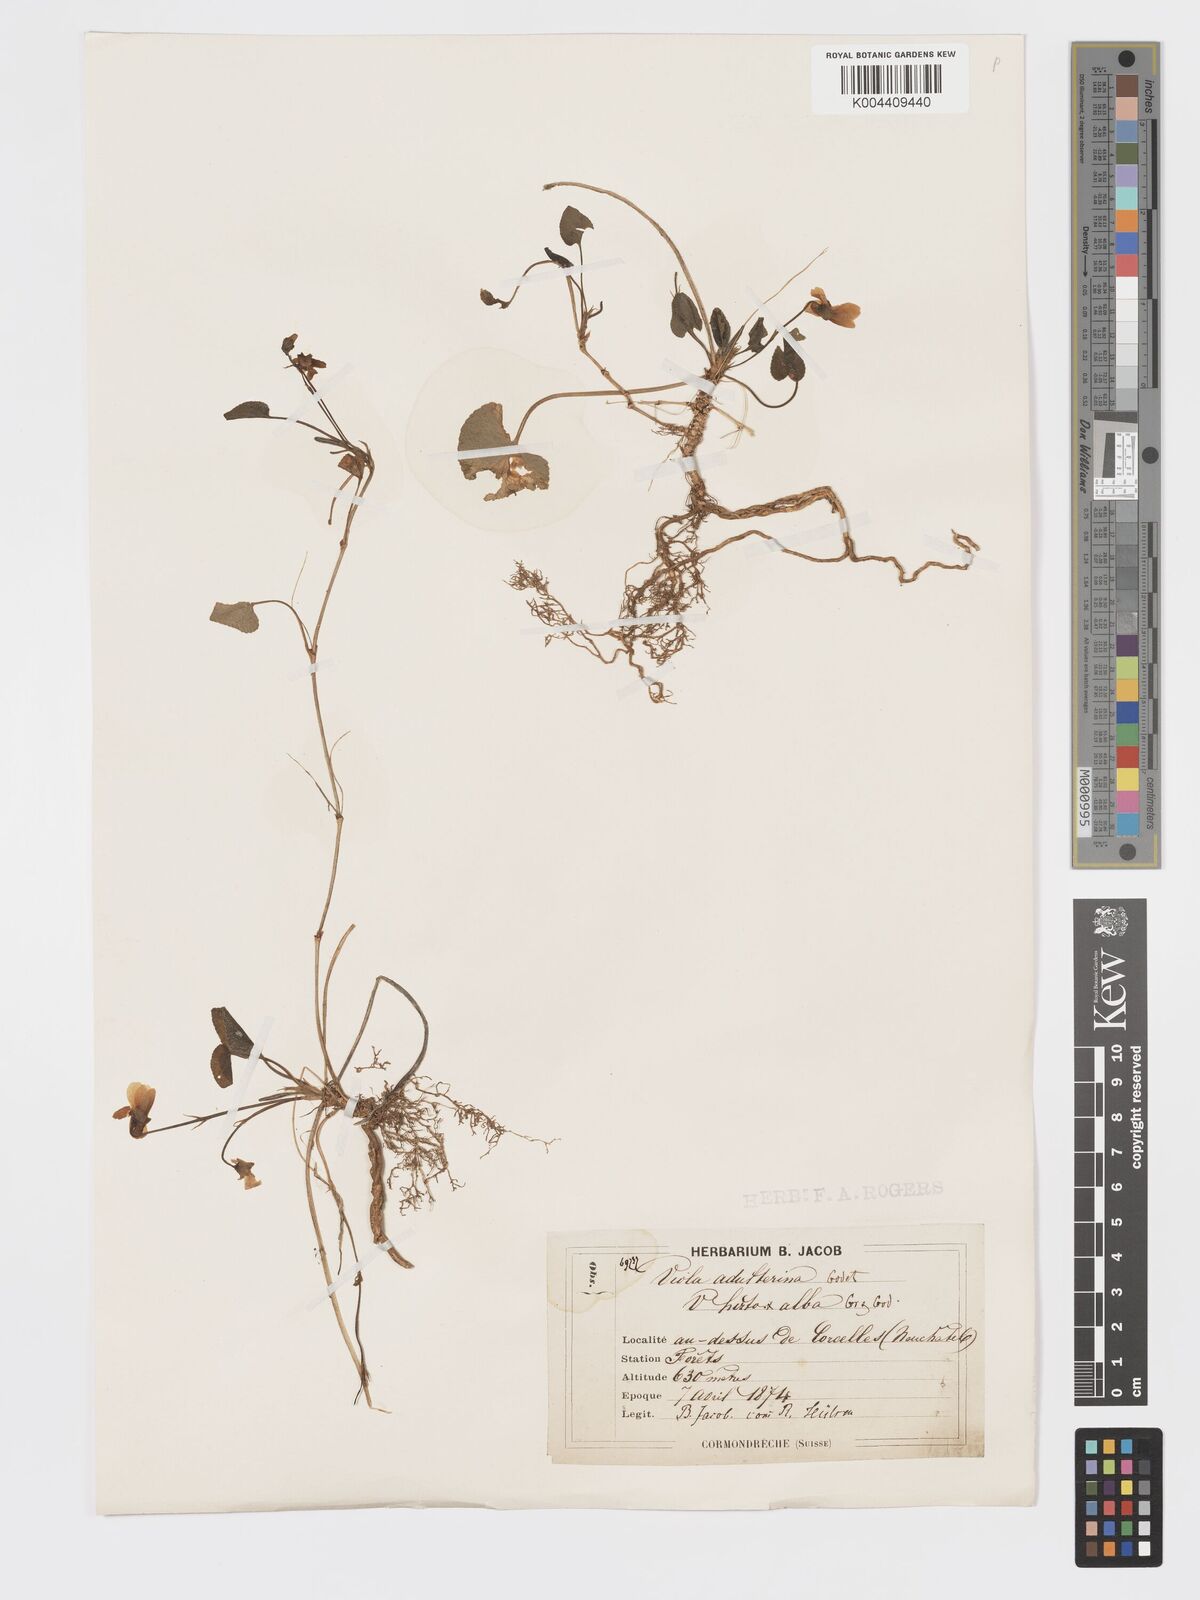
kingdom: Plantae
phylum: Tracheophyta
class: Magnoliopsida
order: Malpighiales
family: Violaceae
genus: Viola
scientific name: Viola alba
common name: White violet
